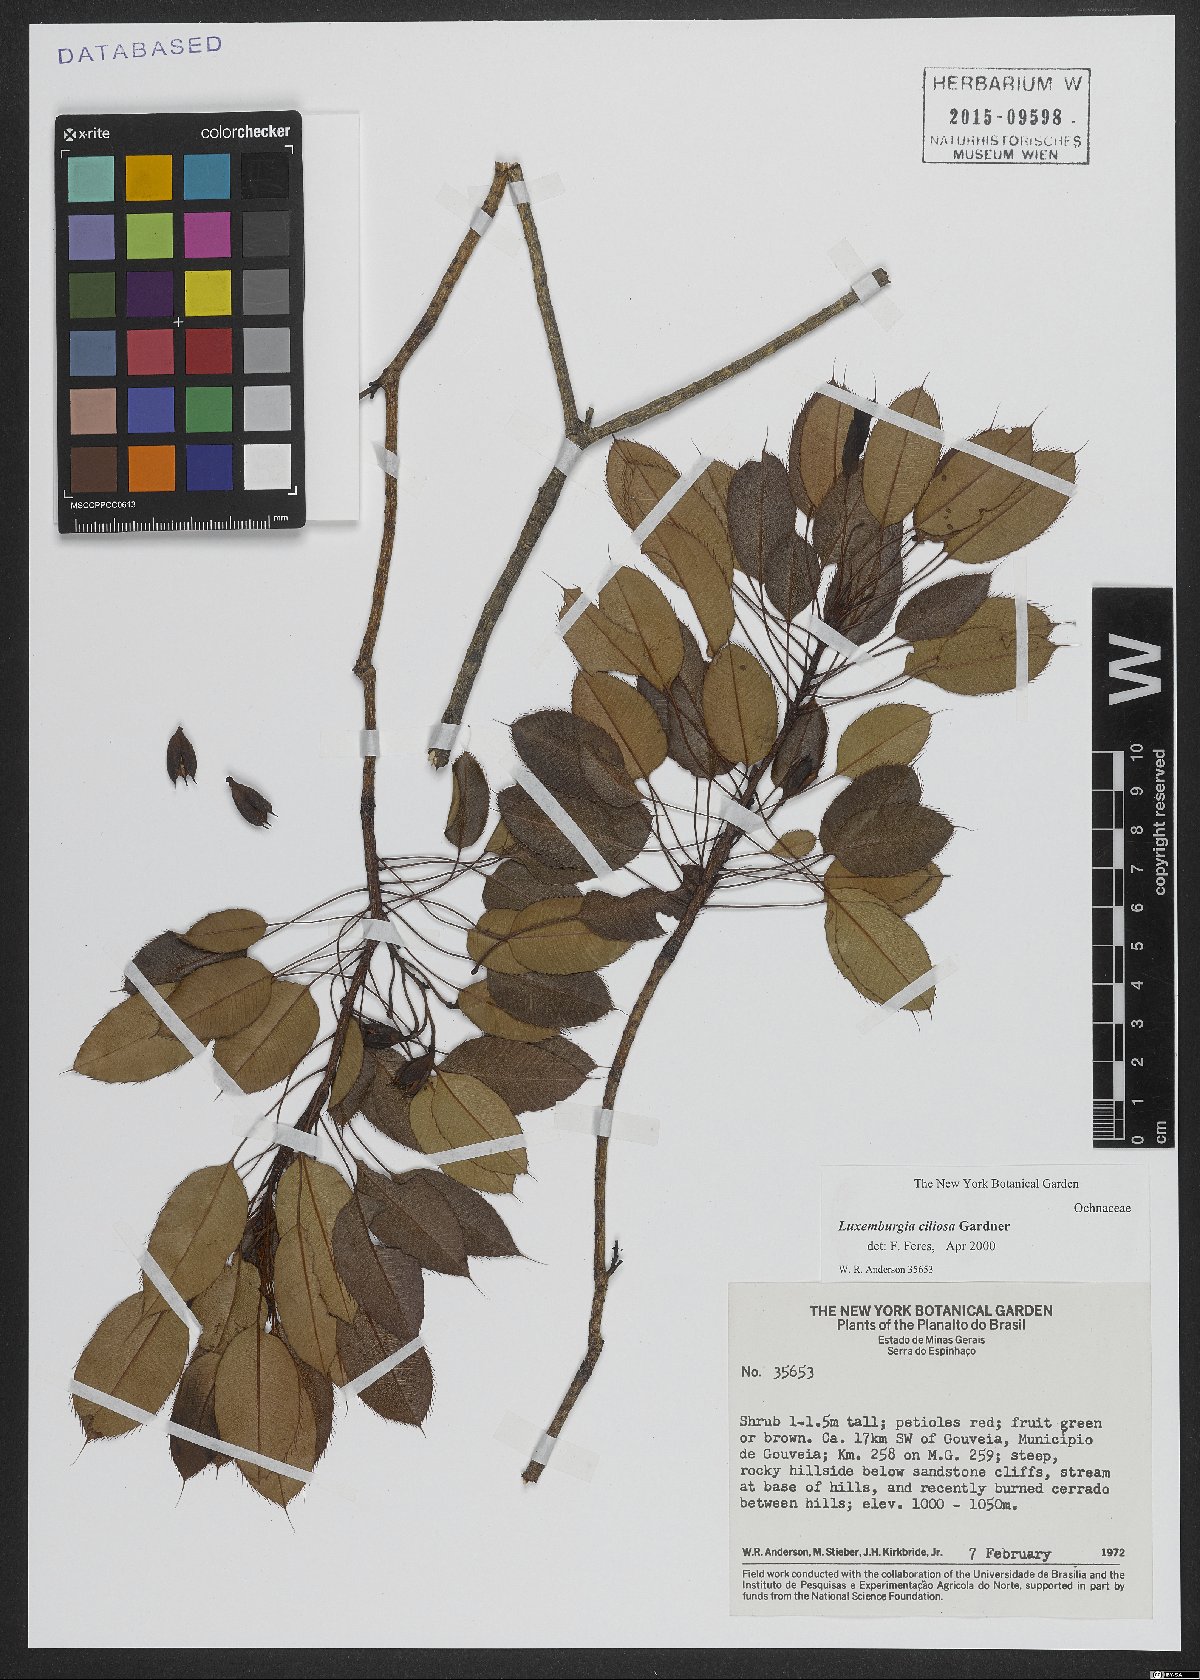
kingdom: Plantae
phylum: Tracheophyta
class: Magnoliopsida
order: Malpighiales
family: Ochnaceae
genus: Luxemburgia
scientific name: Luxemburgia ciliosa
